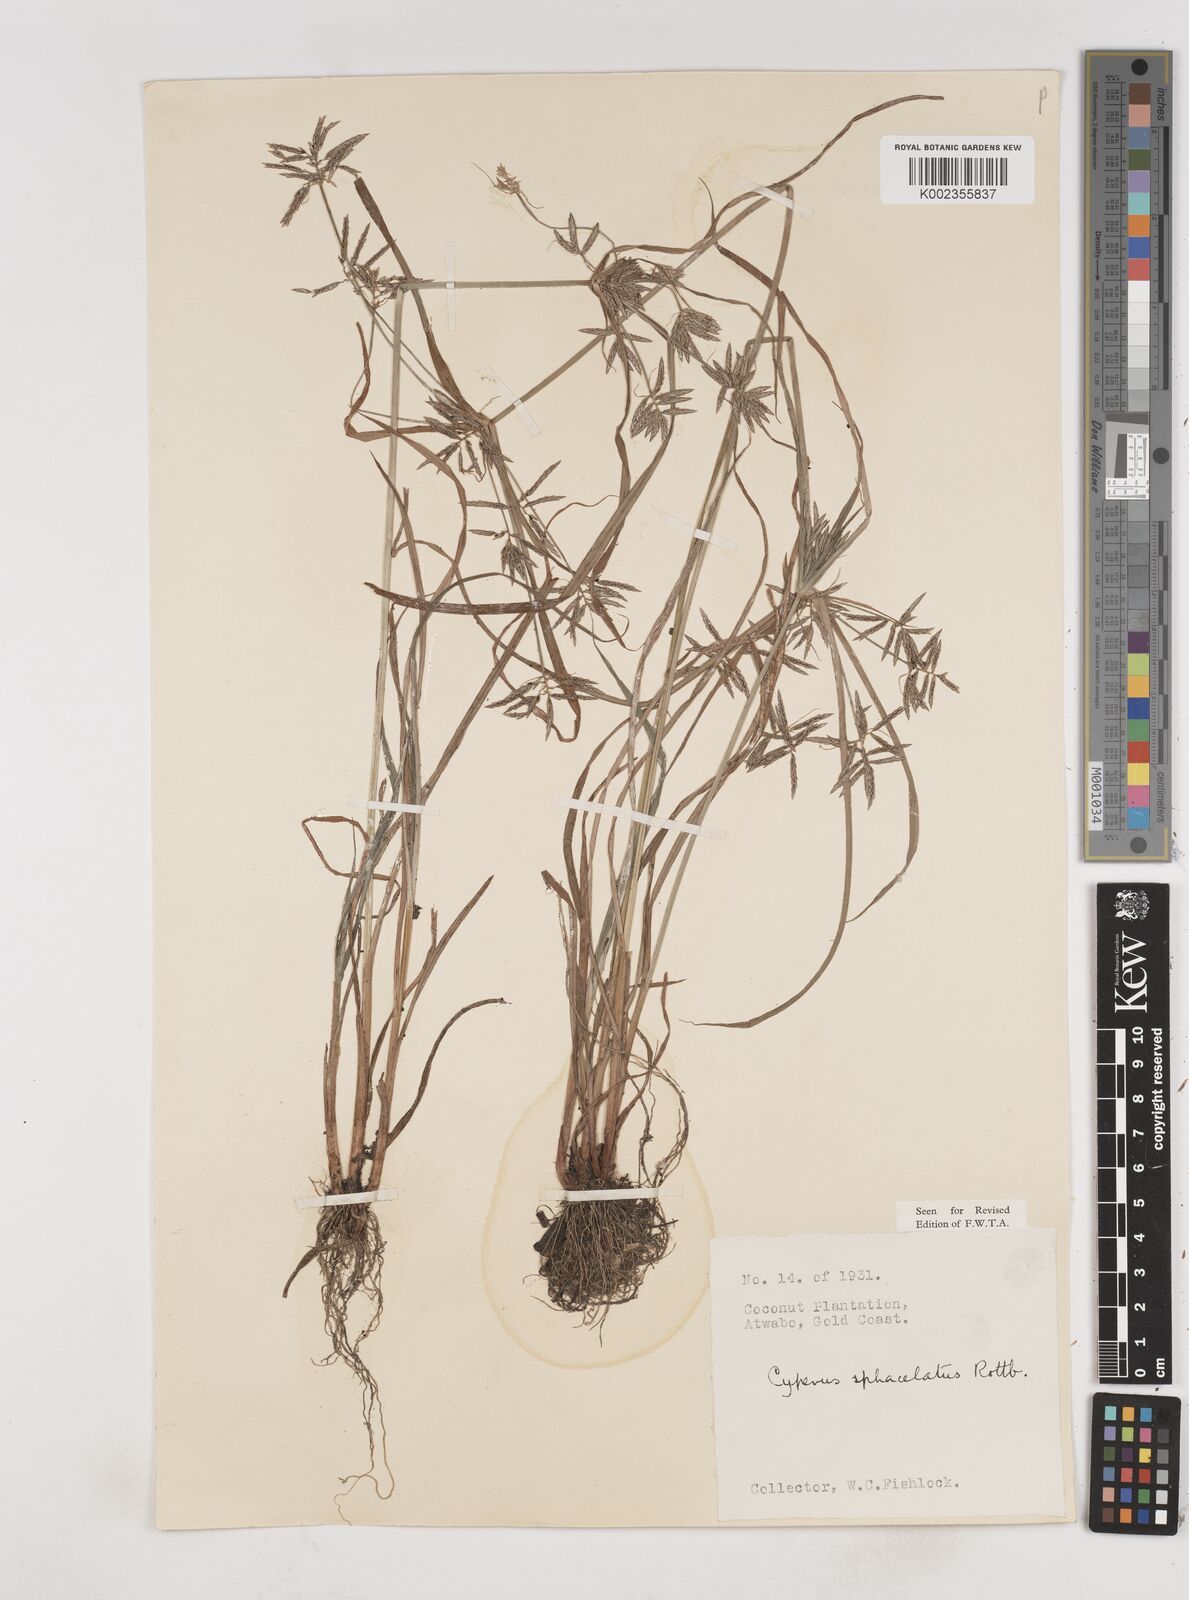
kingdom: Plantae
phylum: Tracheophyta
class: Liliopsida
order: Poales
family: Cyperaceae
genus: Cyperus
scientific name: Cyperus sphacelatus
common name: Roadside flatsedge
